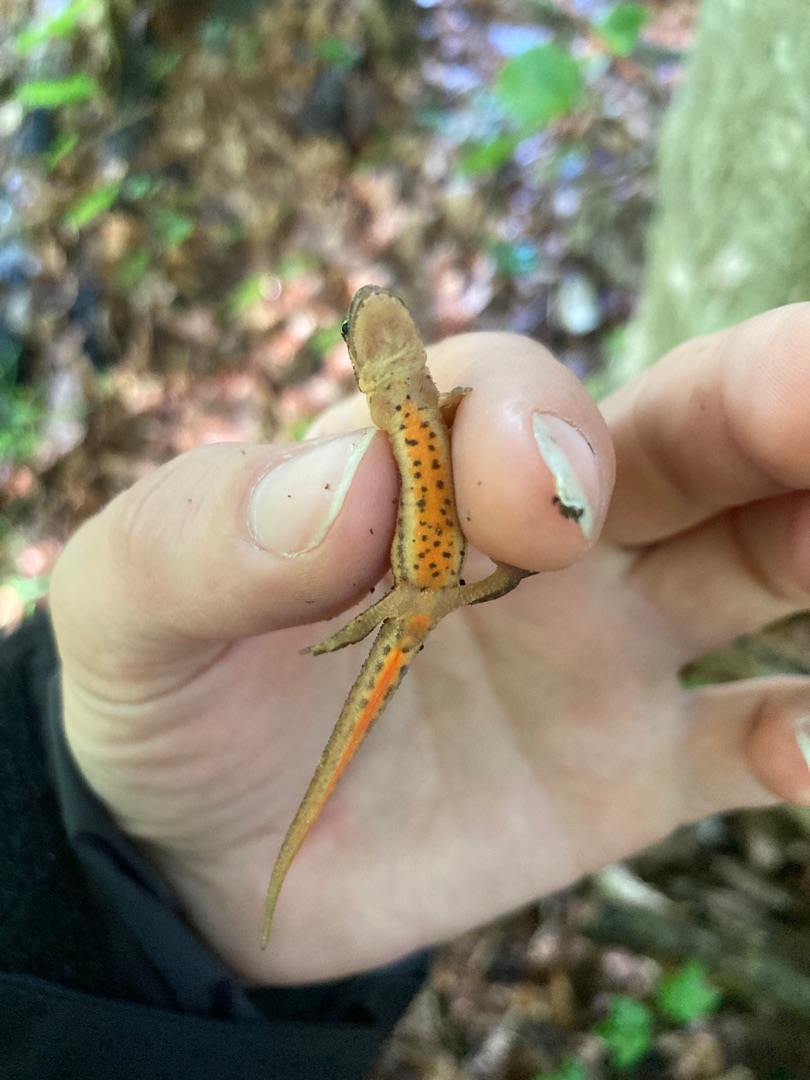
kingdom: Animalia
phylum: Chordata
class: Amphibia
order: Caudata
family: Salamandridae
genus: Lissotriton
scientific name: Lissotriton vulgaris
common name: Lille vandsalamander
